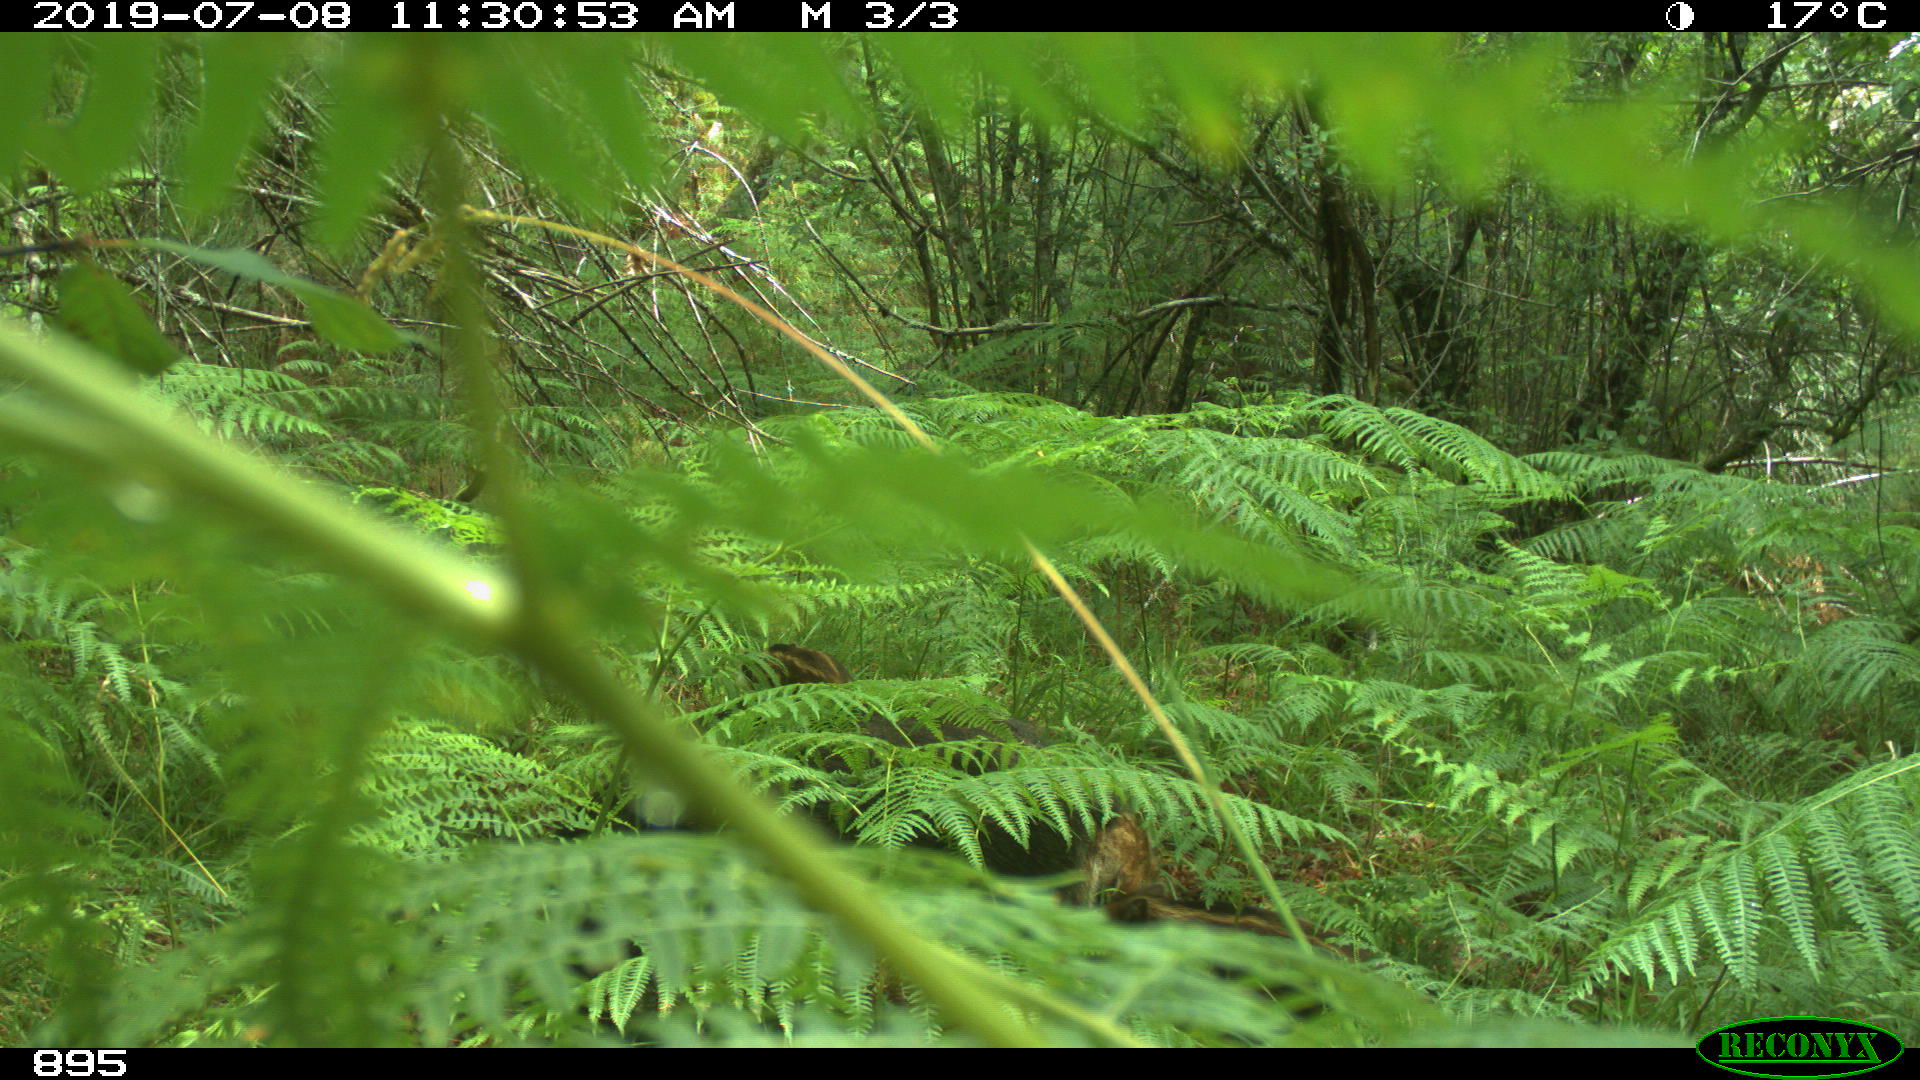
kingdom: Animalia
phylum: Chordata
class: Mammalia
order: Artiodactyla
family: Suidae
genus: Sus
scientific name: Sus scrofa
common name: Wild boar
